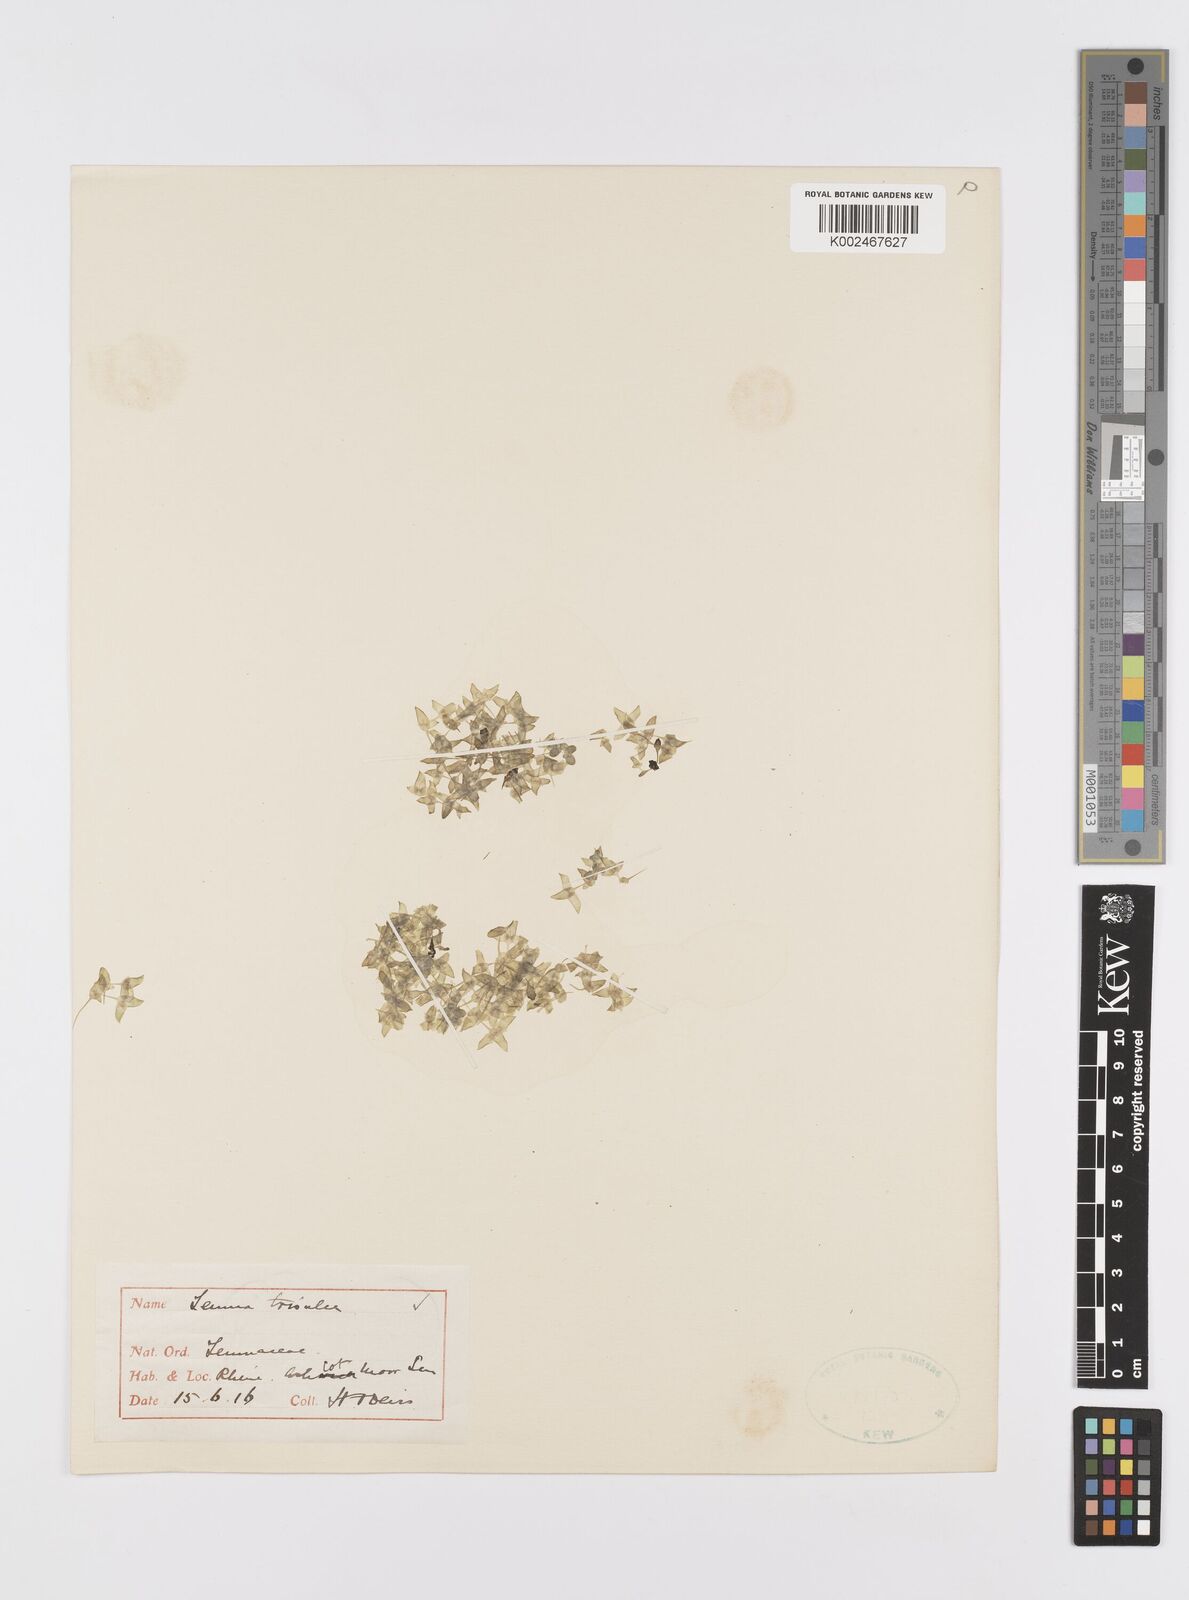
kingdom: Plantae
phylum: Tracheophyta
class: Liliopsida
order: Alismatales
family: Araceae
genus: Lemna
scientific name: Lemna trisulca
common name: Ivy-leaved duckweed
